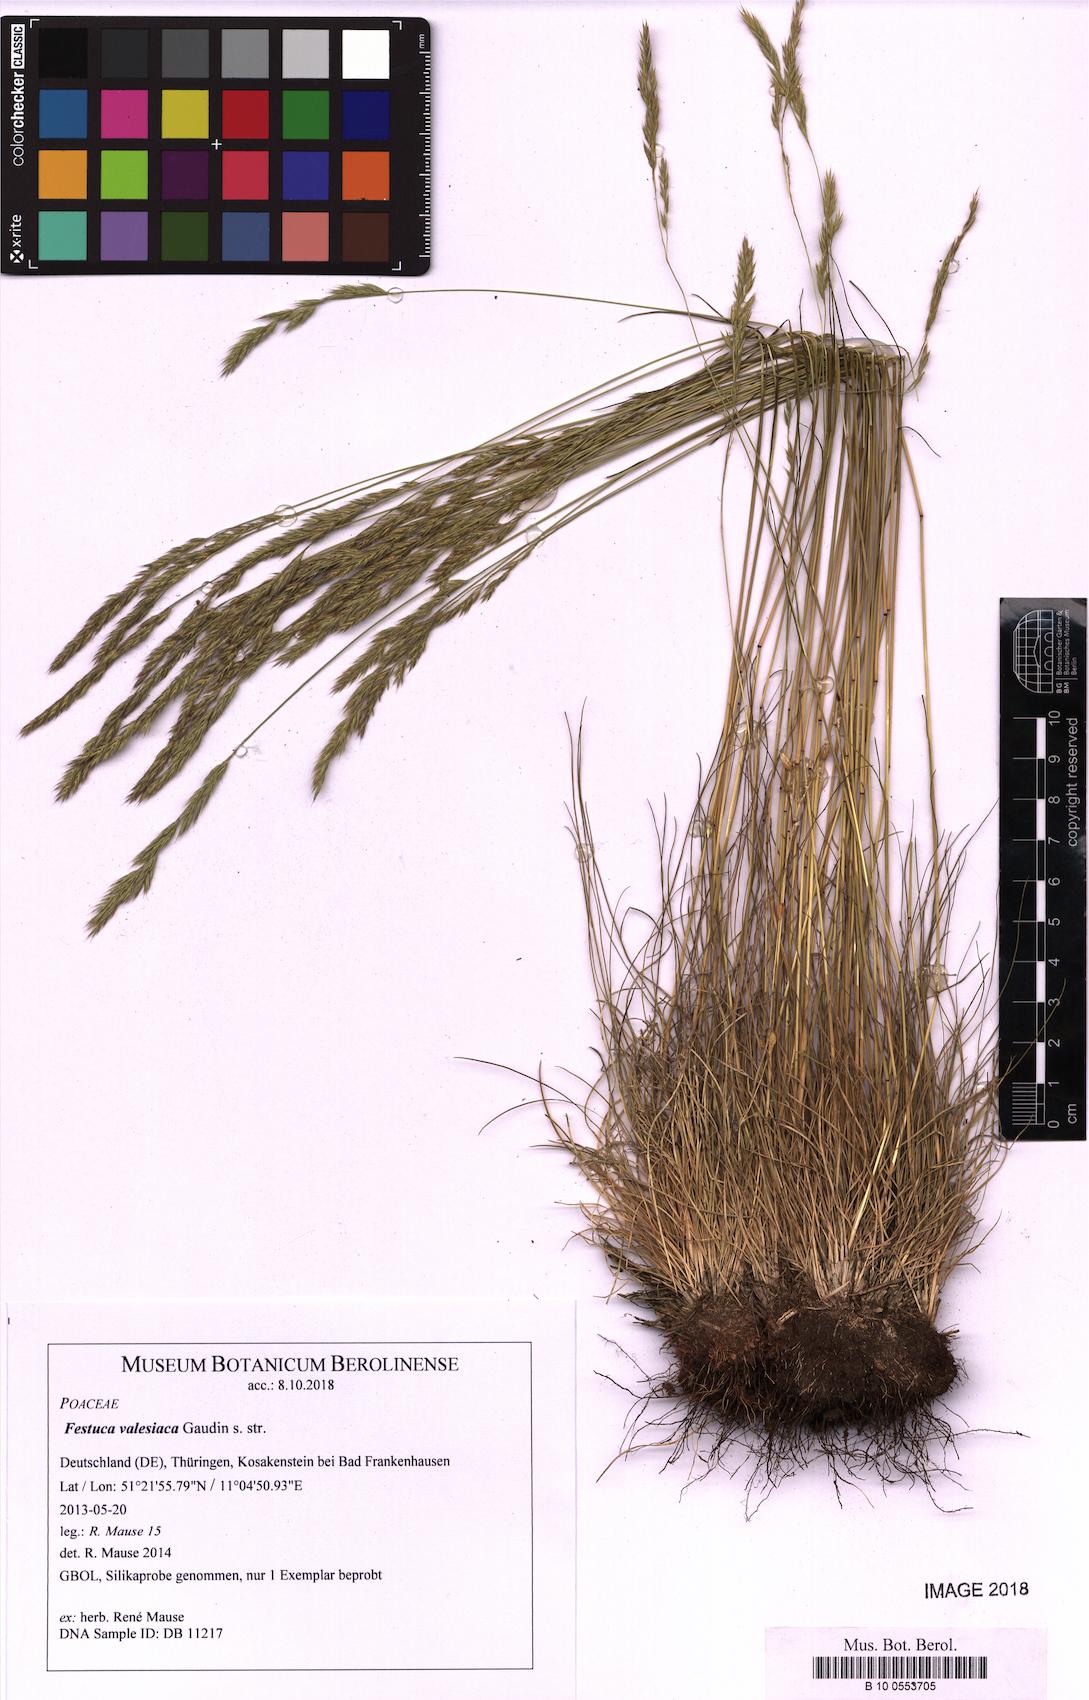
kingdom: Plantae
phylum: Tracheophyta
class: Liliopsida
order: Poales
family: Poaceae
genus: Festuca
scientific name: Festuca valesiaca
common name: Volga fescue
